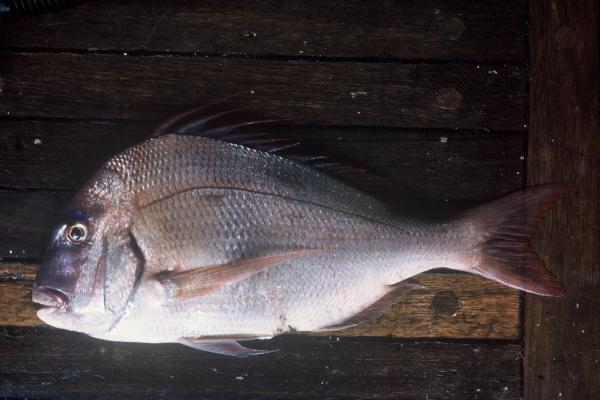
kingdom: Animalia
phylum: Chordata
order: Perciformes
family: Sparidae
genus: Argyrops
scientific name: Argyrops spinifer
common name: King soldier bream
